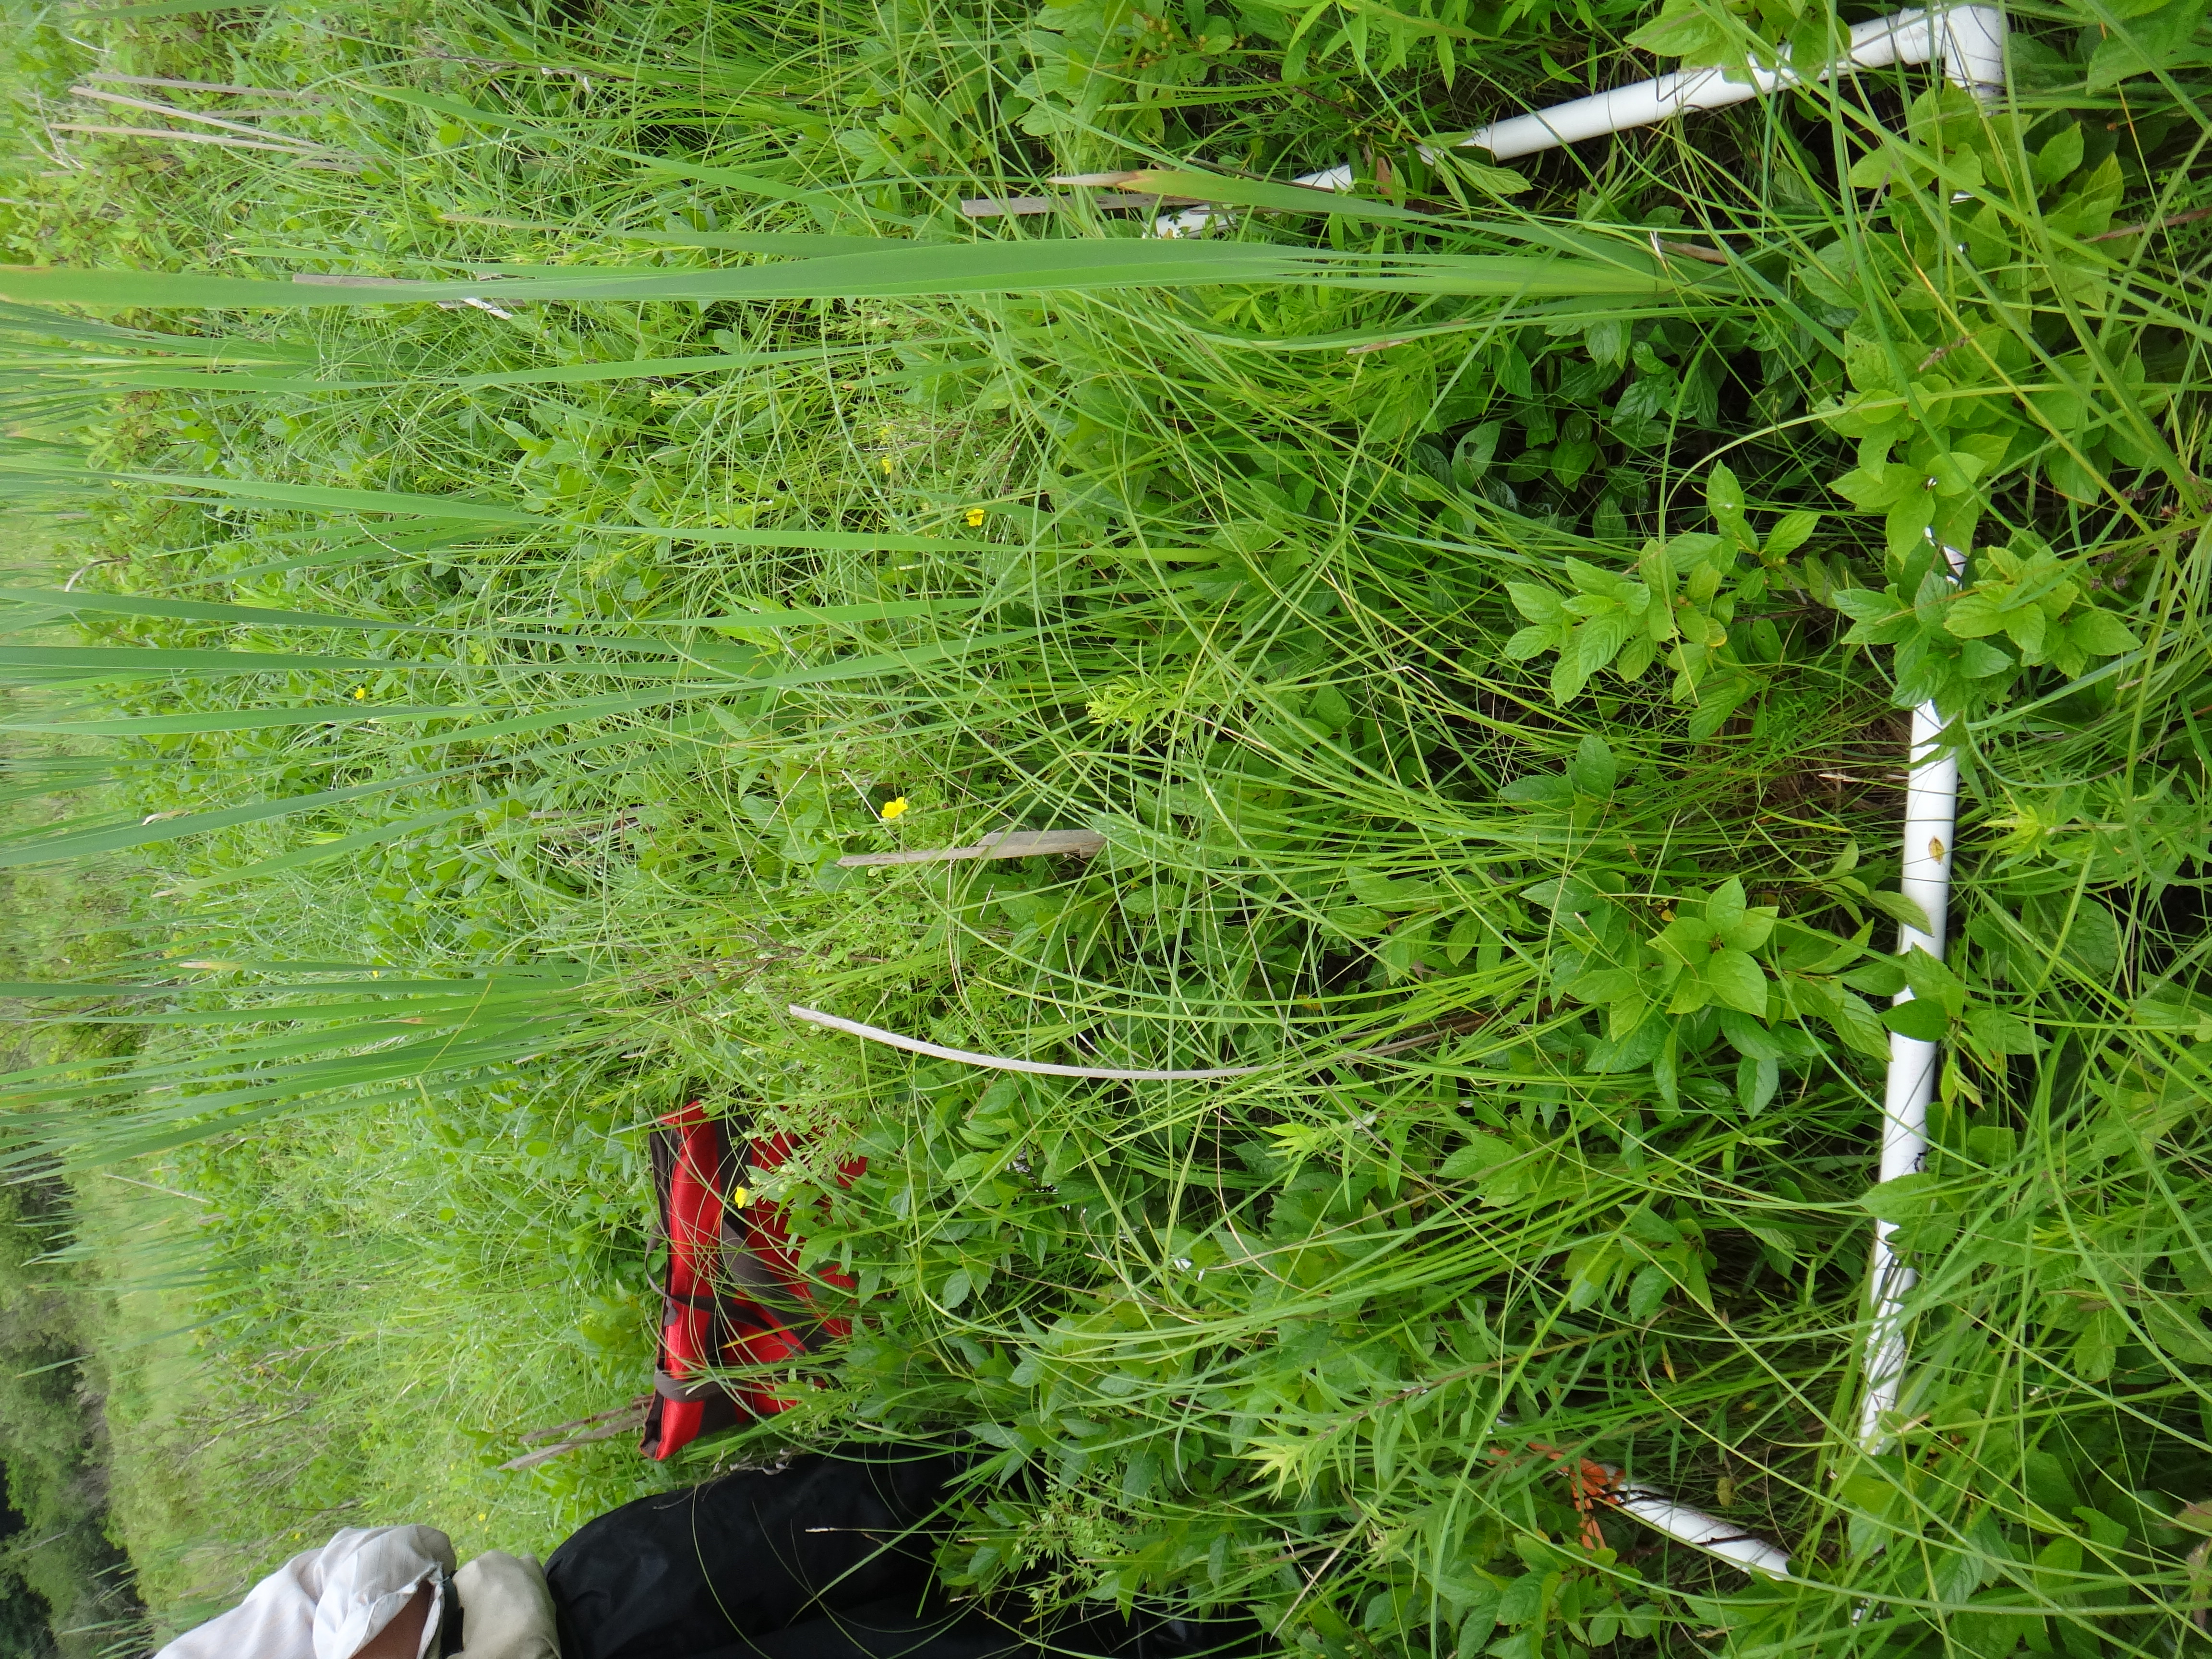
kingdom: Plantae
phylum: Tracheophyta
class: Magnoliopsida
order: Gentianales
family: Rubiaceae
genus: Galium
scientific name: Galium boreale
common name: Northern bedstraw
